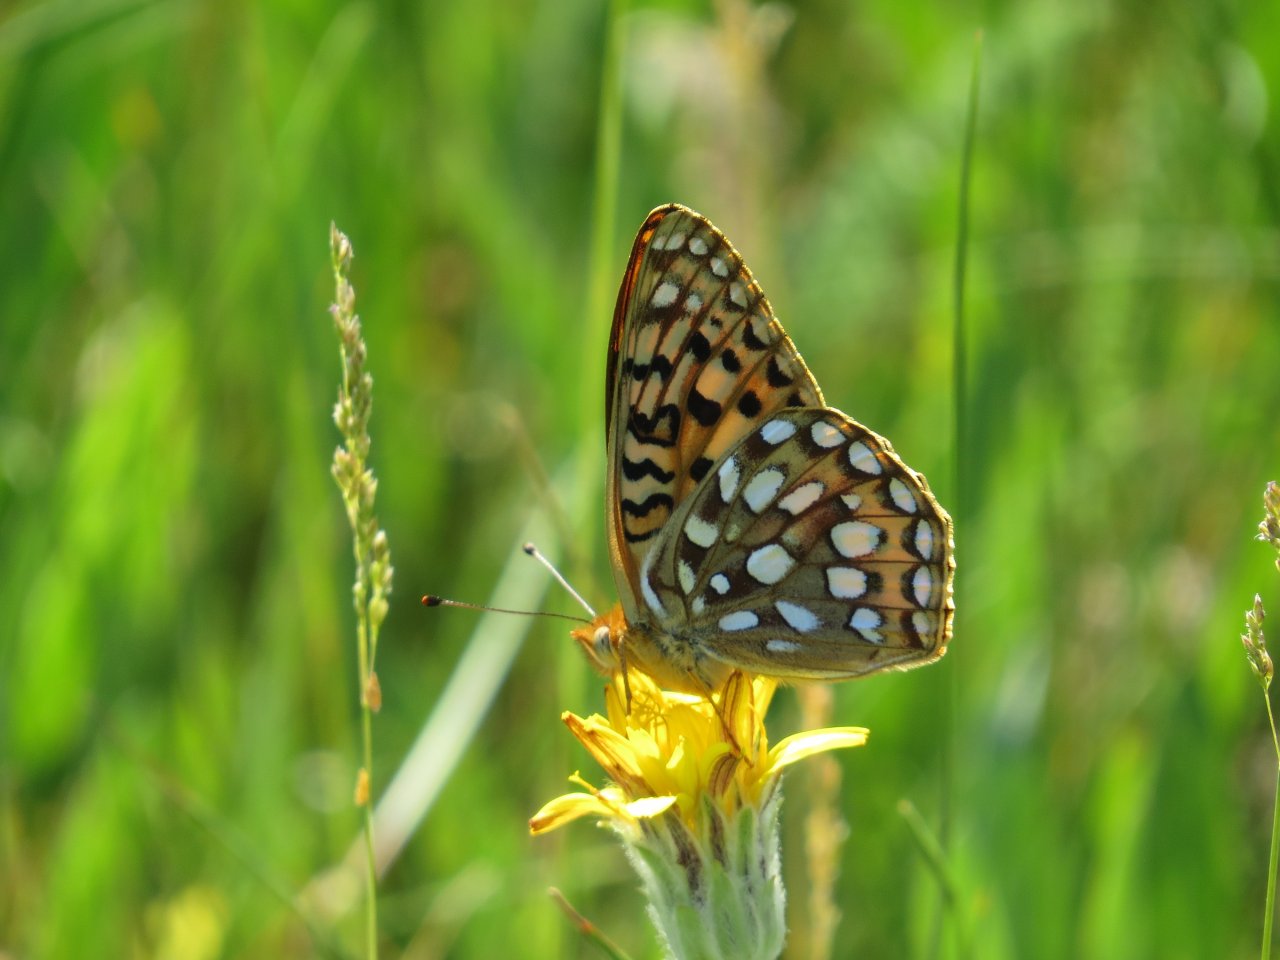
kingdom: Animalia
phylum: Arthropoda
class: Insecta
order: Lepidoptera
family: Nymphalidae
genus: Speyeria
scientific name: Speyeria mormonia
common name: Mormon Fritillary
